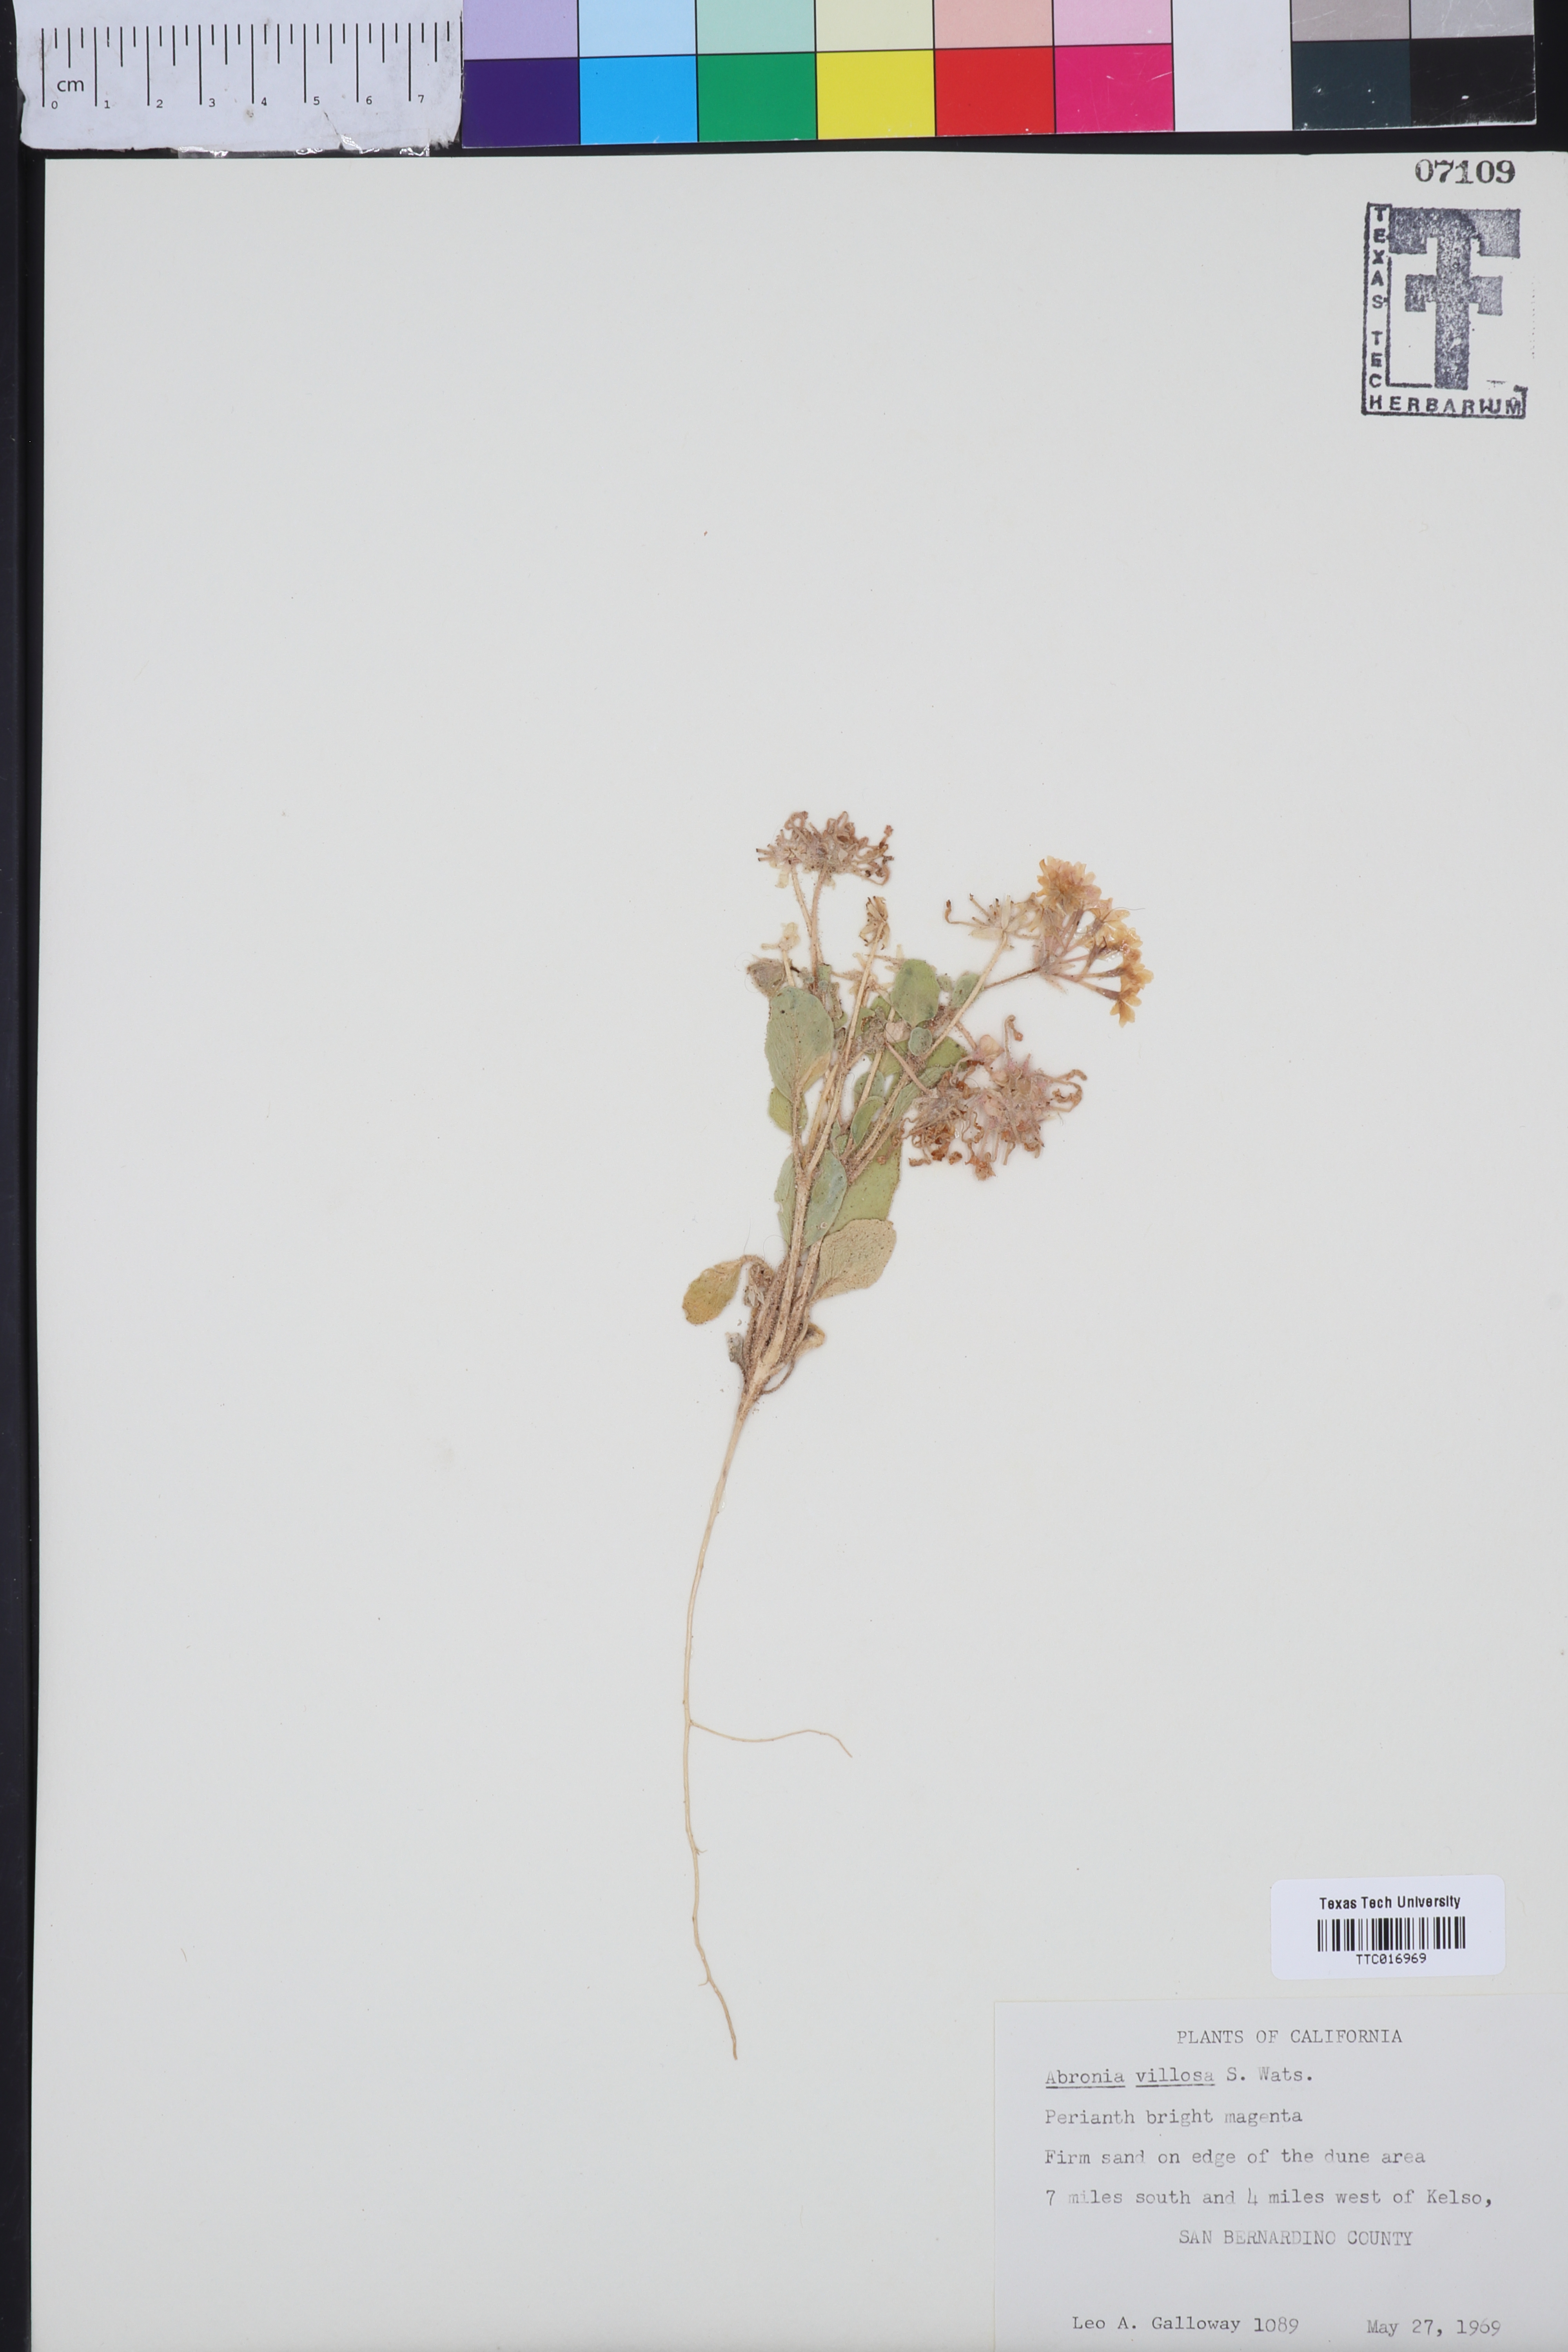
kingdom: Plantae
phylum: Tracheophyta
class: Magnoliopsida
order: Caryophyllales
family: Nyctaginaceae
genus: Abronia
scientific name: Abronia villosa
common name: Desert sand-verbena
